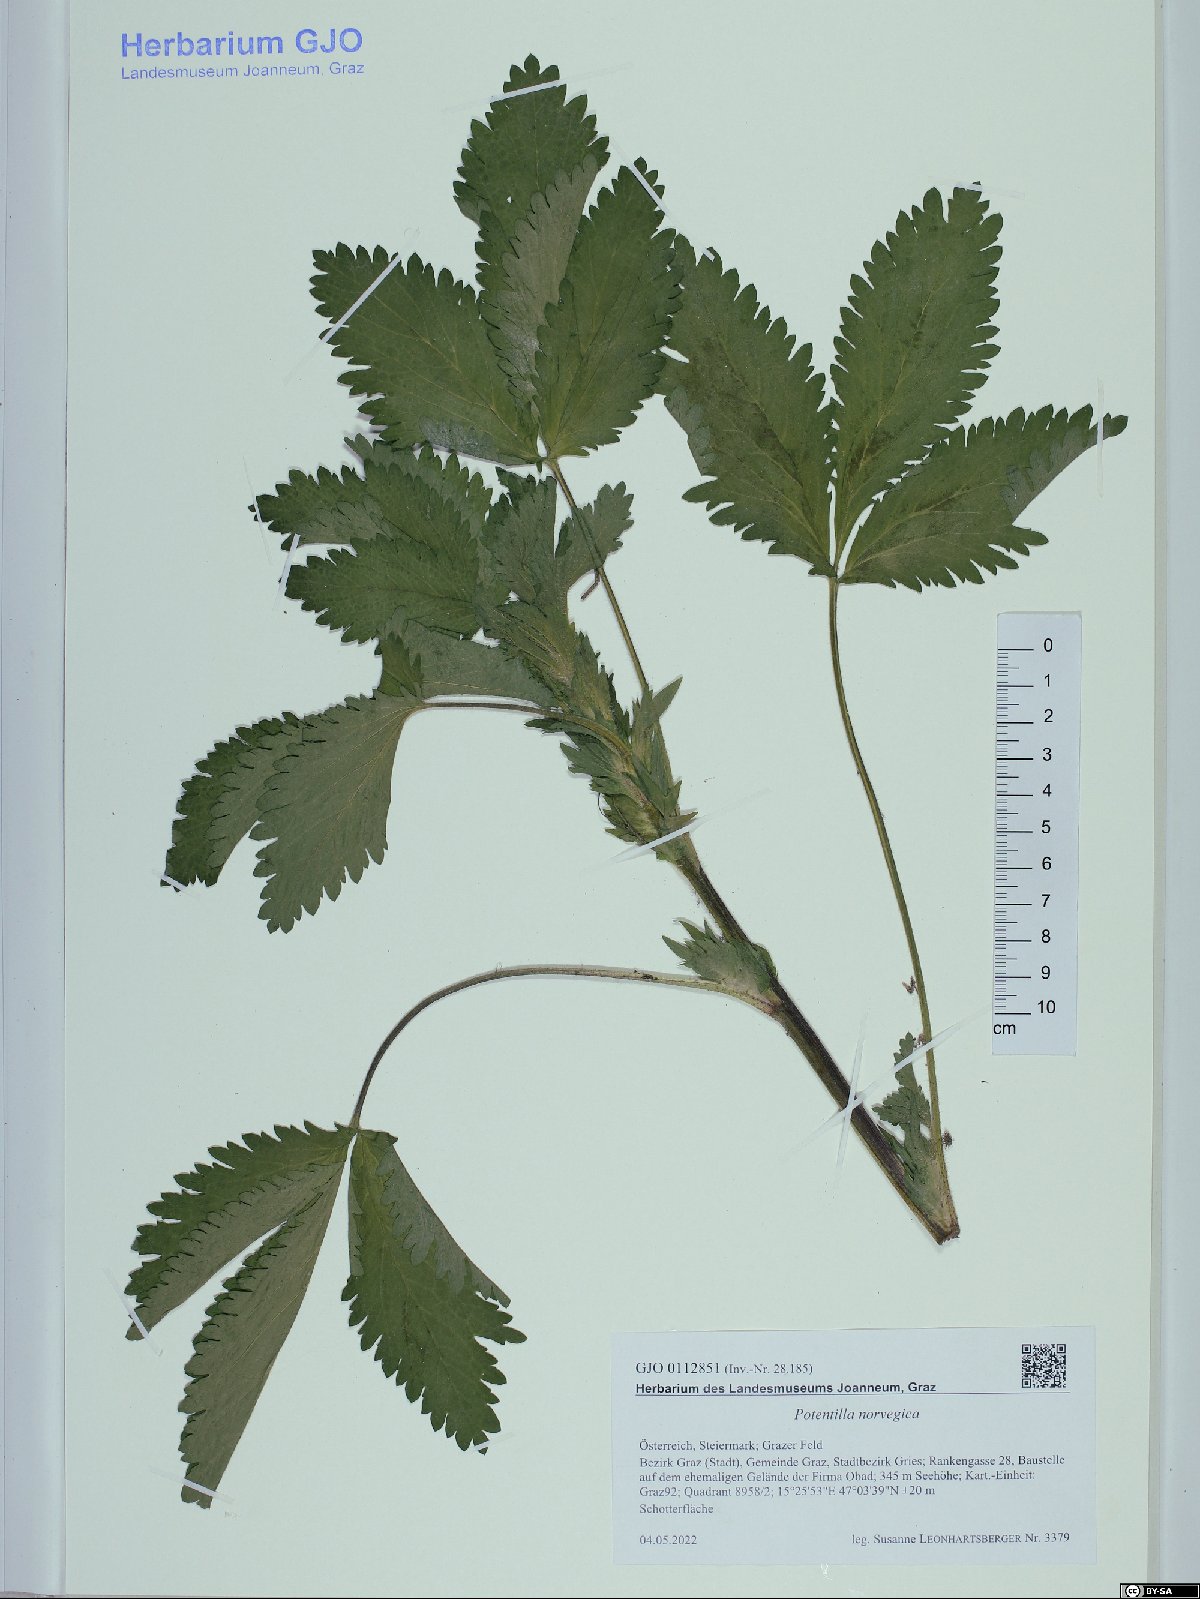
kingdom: Plantae
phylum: Tracheophyta
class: Magnoliopsida
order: Rosales
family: Rosaceae
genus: Potentilla
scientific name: Potentilla norvegica
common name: Ternate-leaved cinquefoil
